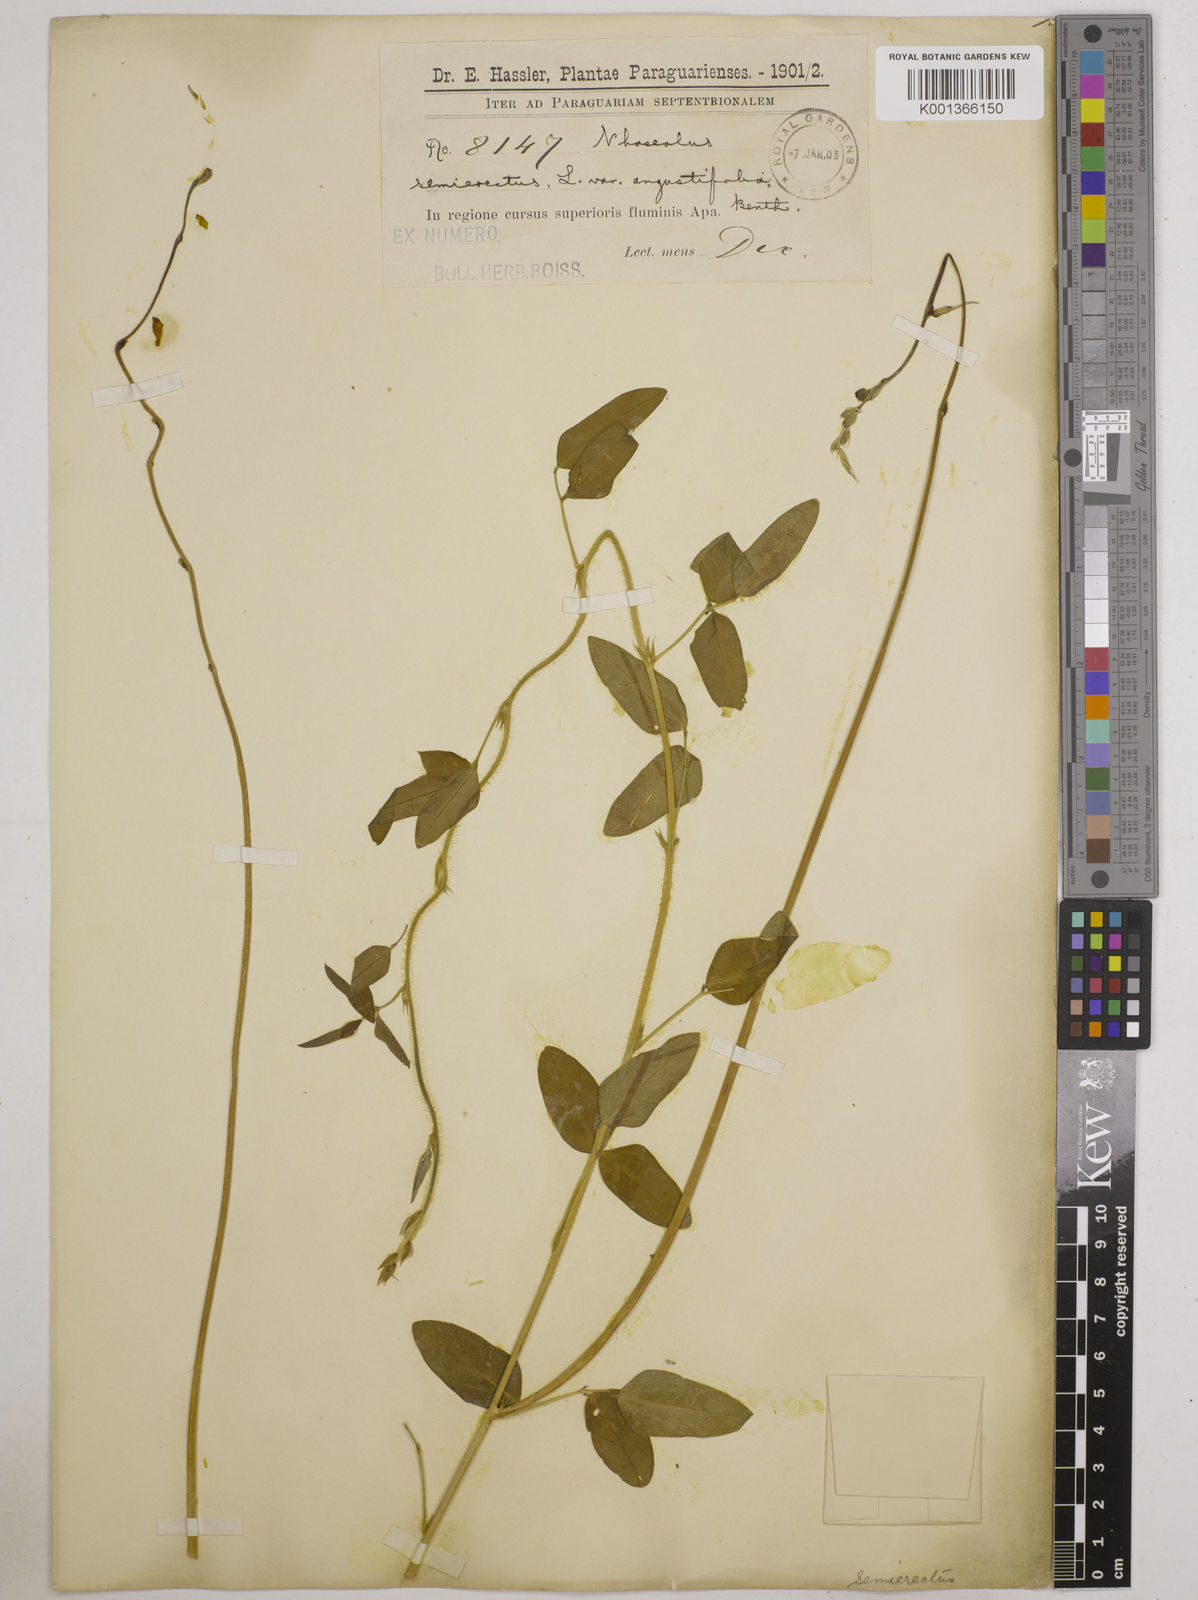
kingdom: Plantae
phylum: Tracheophyta
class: Magnoliopsida
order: Fabales
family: Fabaceae
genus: Macroptilium
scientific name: Macroptilium lathyroides
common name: Wild bushbean
